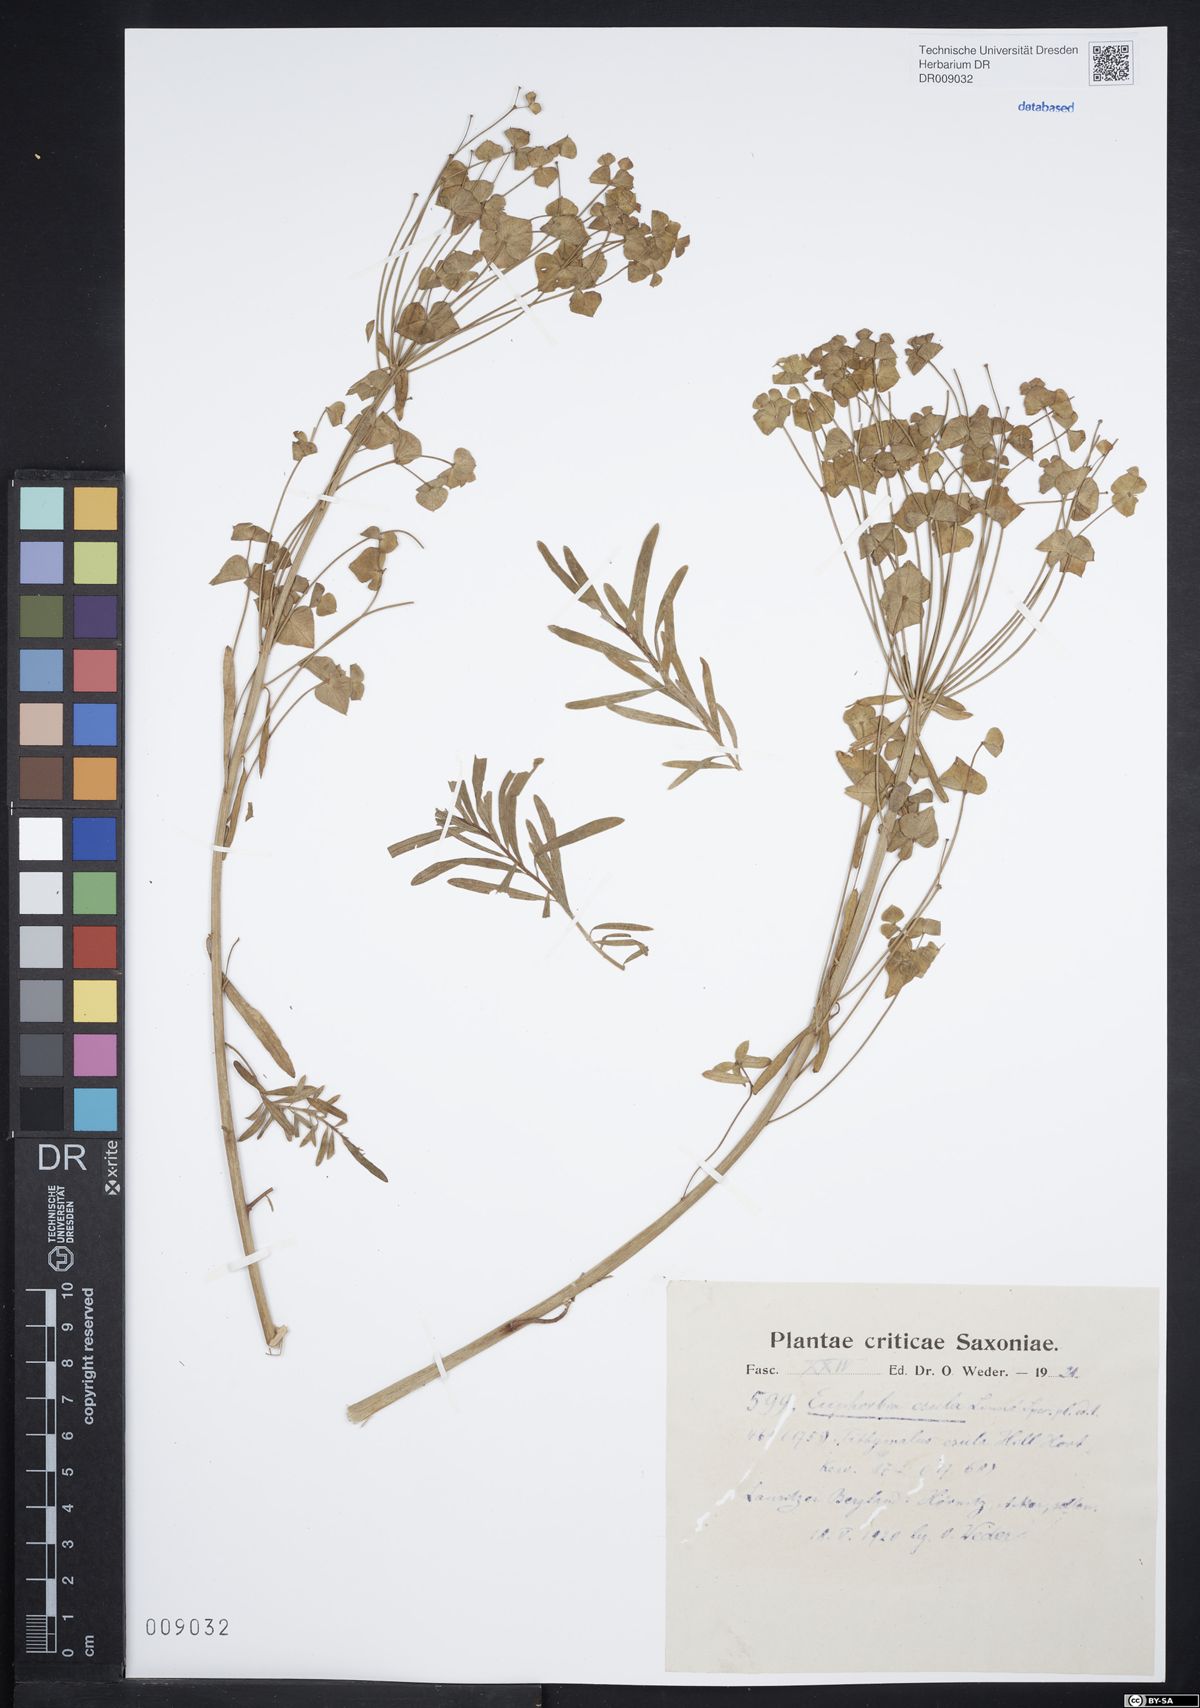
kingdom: Plantae
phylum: Tracheophyta
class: Magnoliopsida
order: Malpighiales
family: Euphorbiaceae
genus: Euphorbia
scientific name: Euphorbia esula
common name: Leafy spurge
